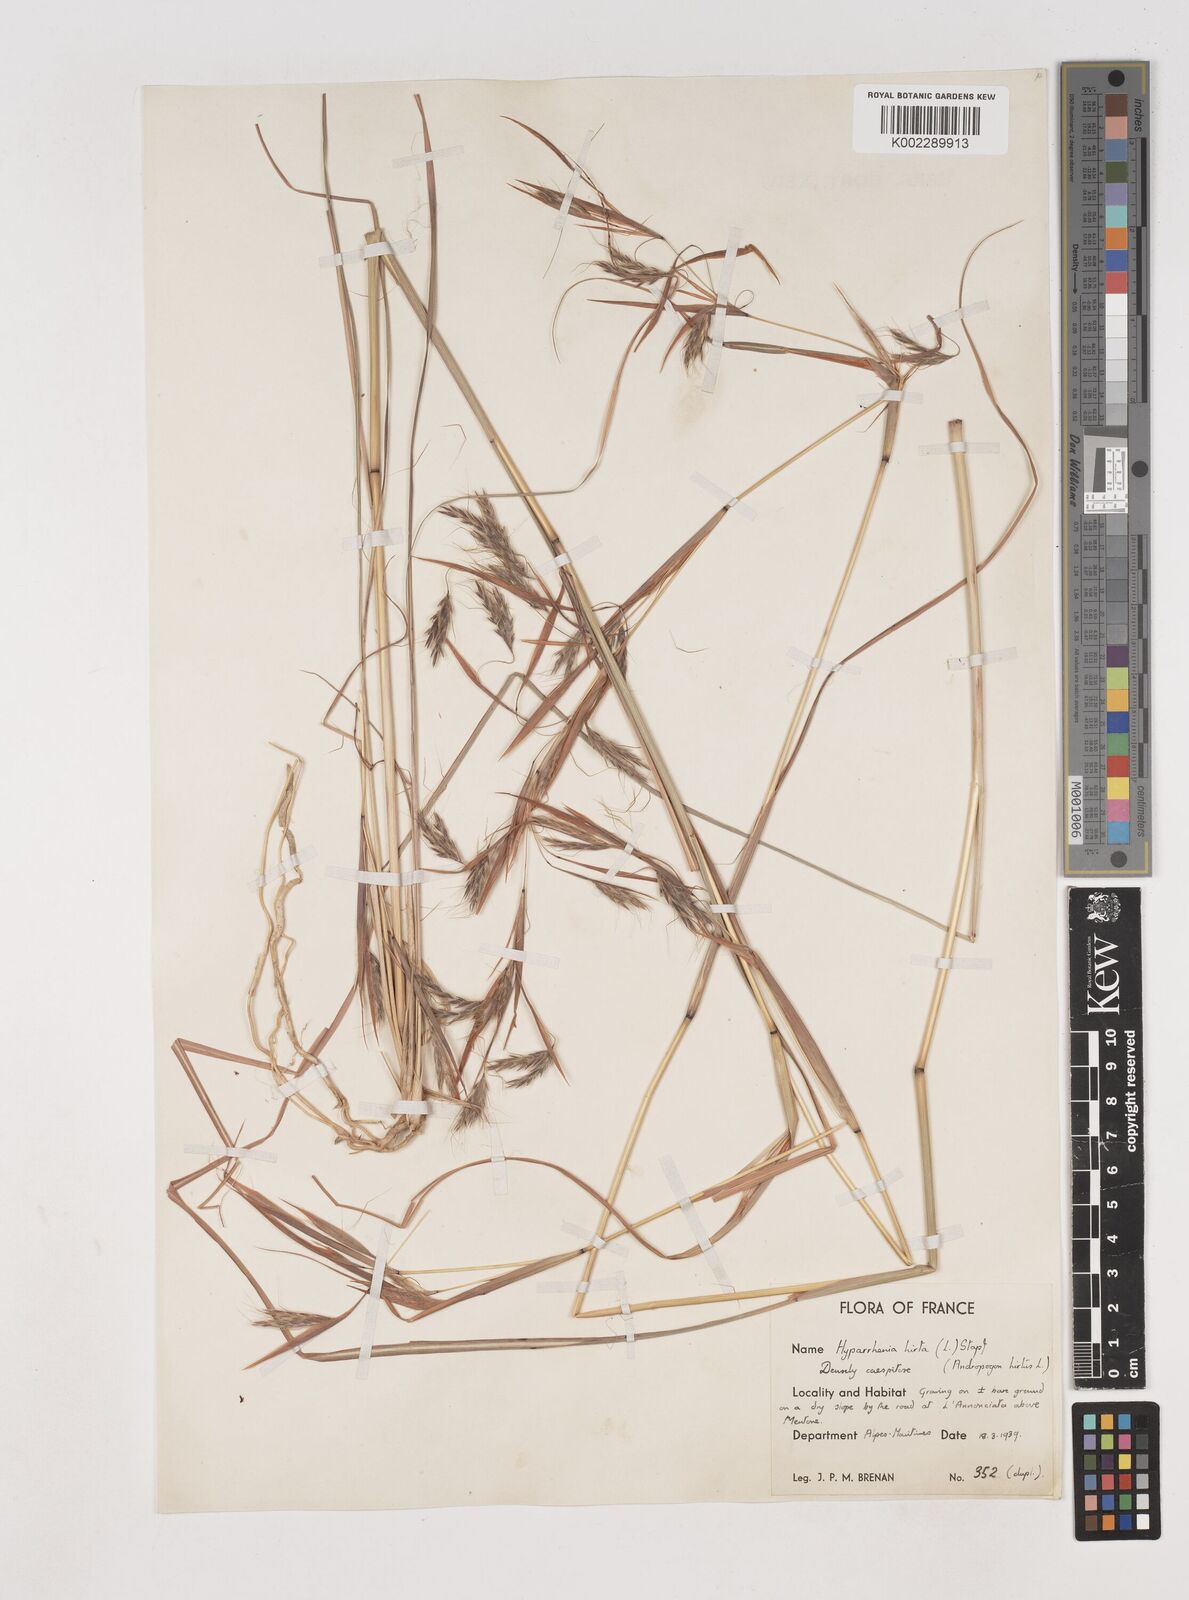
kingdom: Plantae
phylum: Tracheophyta
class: Liliopsida
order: Poales
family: Poaceae
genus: Hyparrhenia
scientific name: Hyparrhenia hirta
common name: Thatching grass
